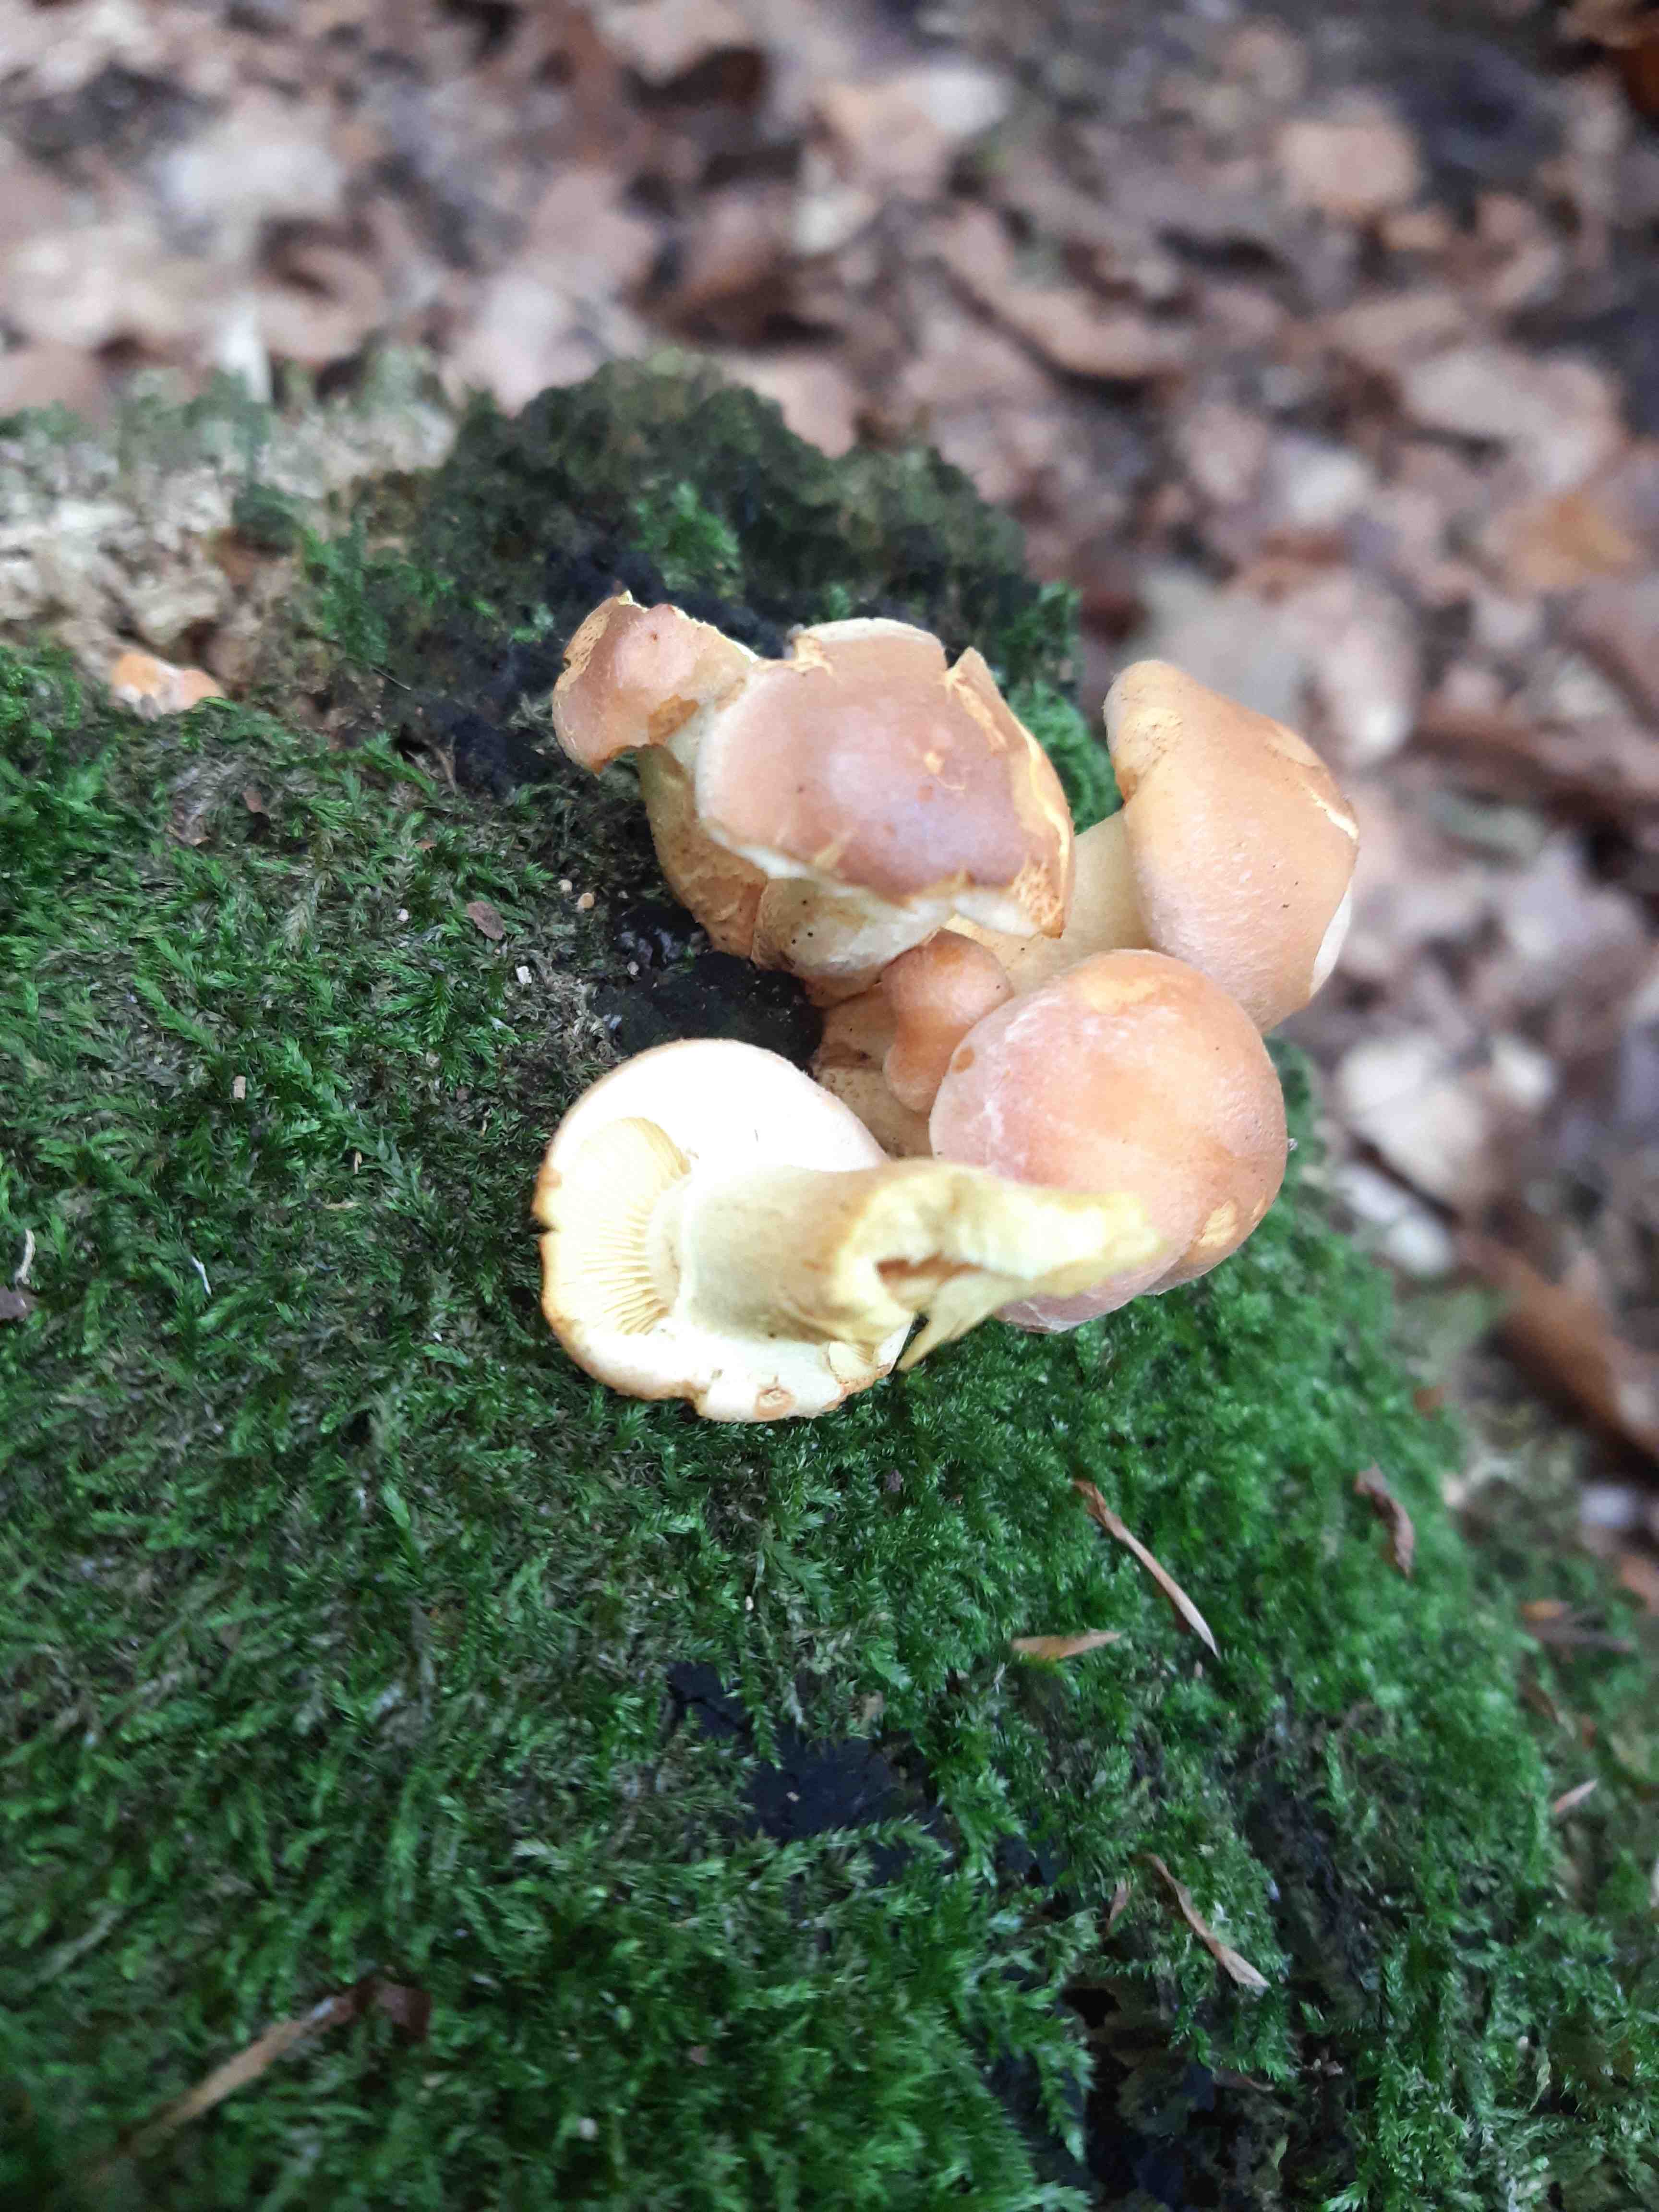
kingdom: Fungi
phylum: Basidiomycota
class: Agaricomycetes
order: Agaricales
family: Strophariaceae
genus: Hypholoma
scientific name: Hypholoma fasciculare
